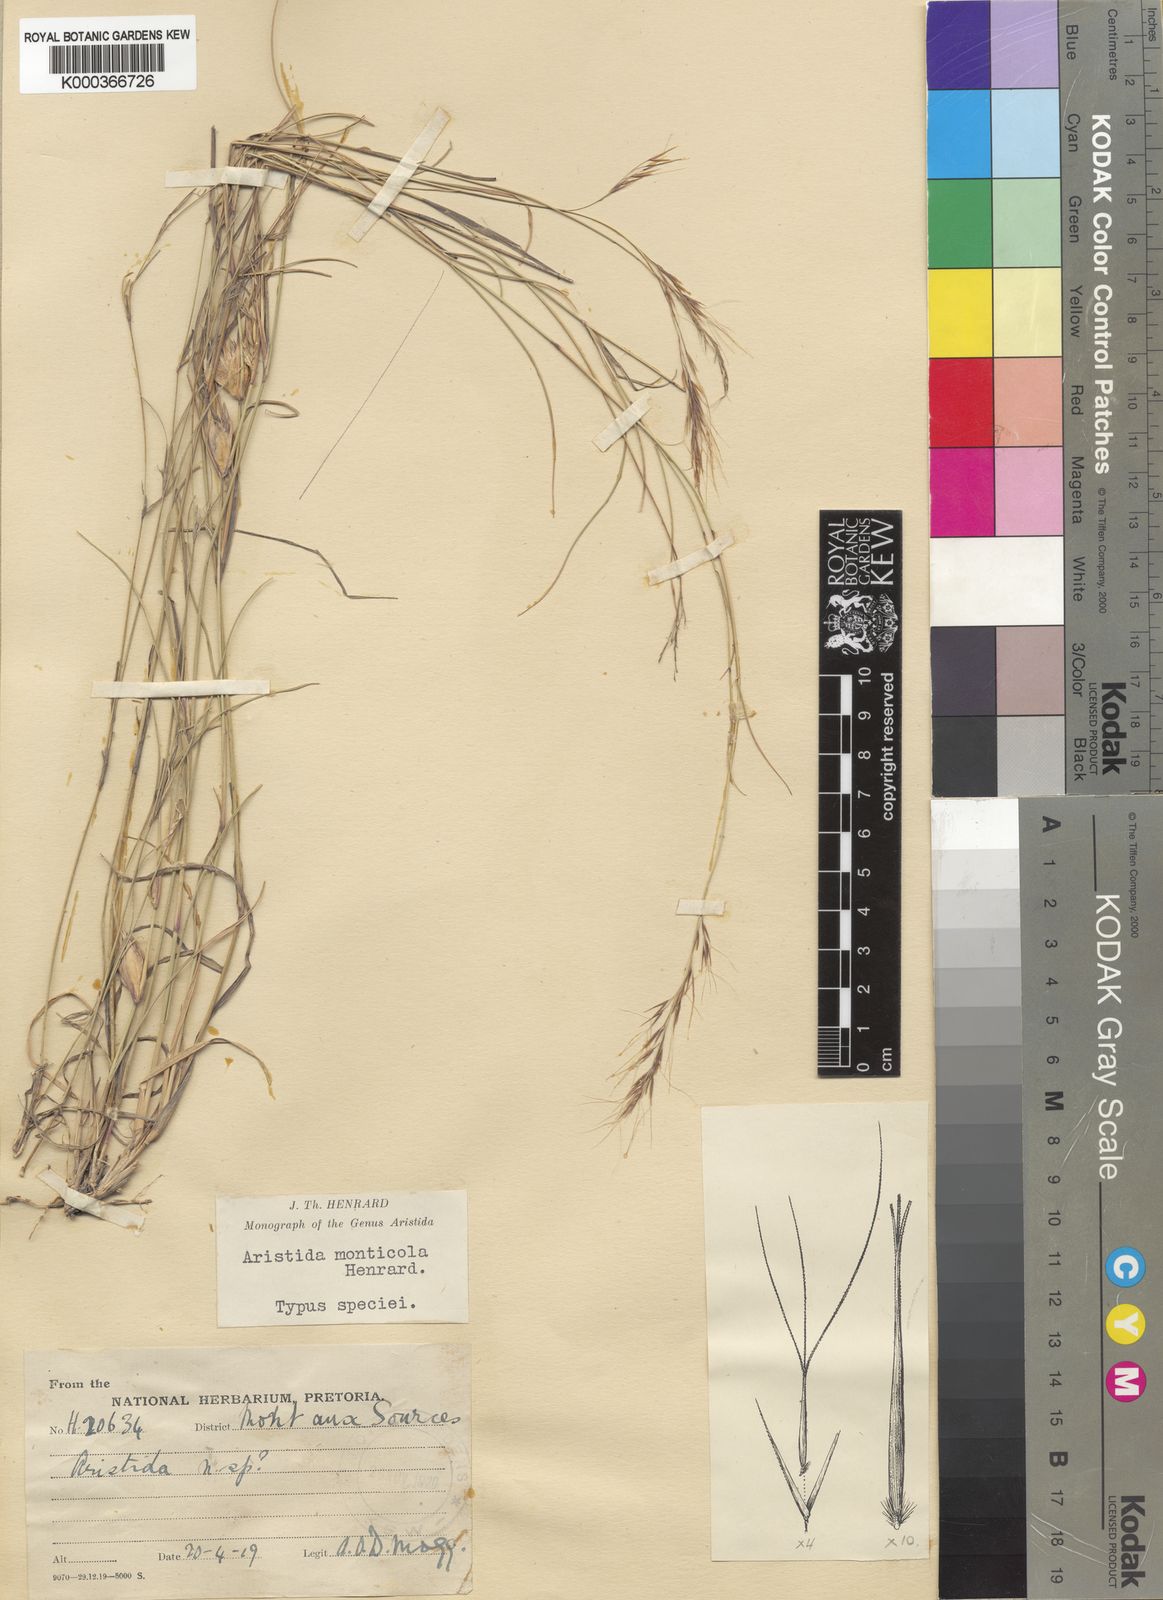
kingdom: Plantae
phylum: Tracheophyta
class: Liliopsida
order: Poales
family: Poaceae
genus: Aristida
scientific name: Aristida monticola
